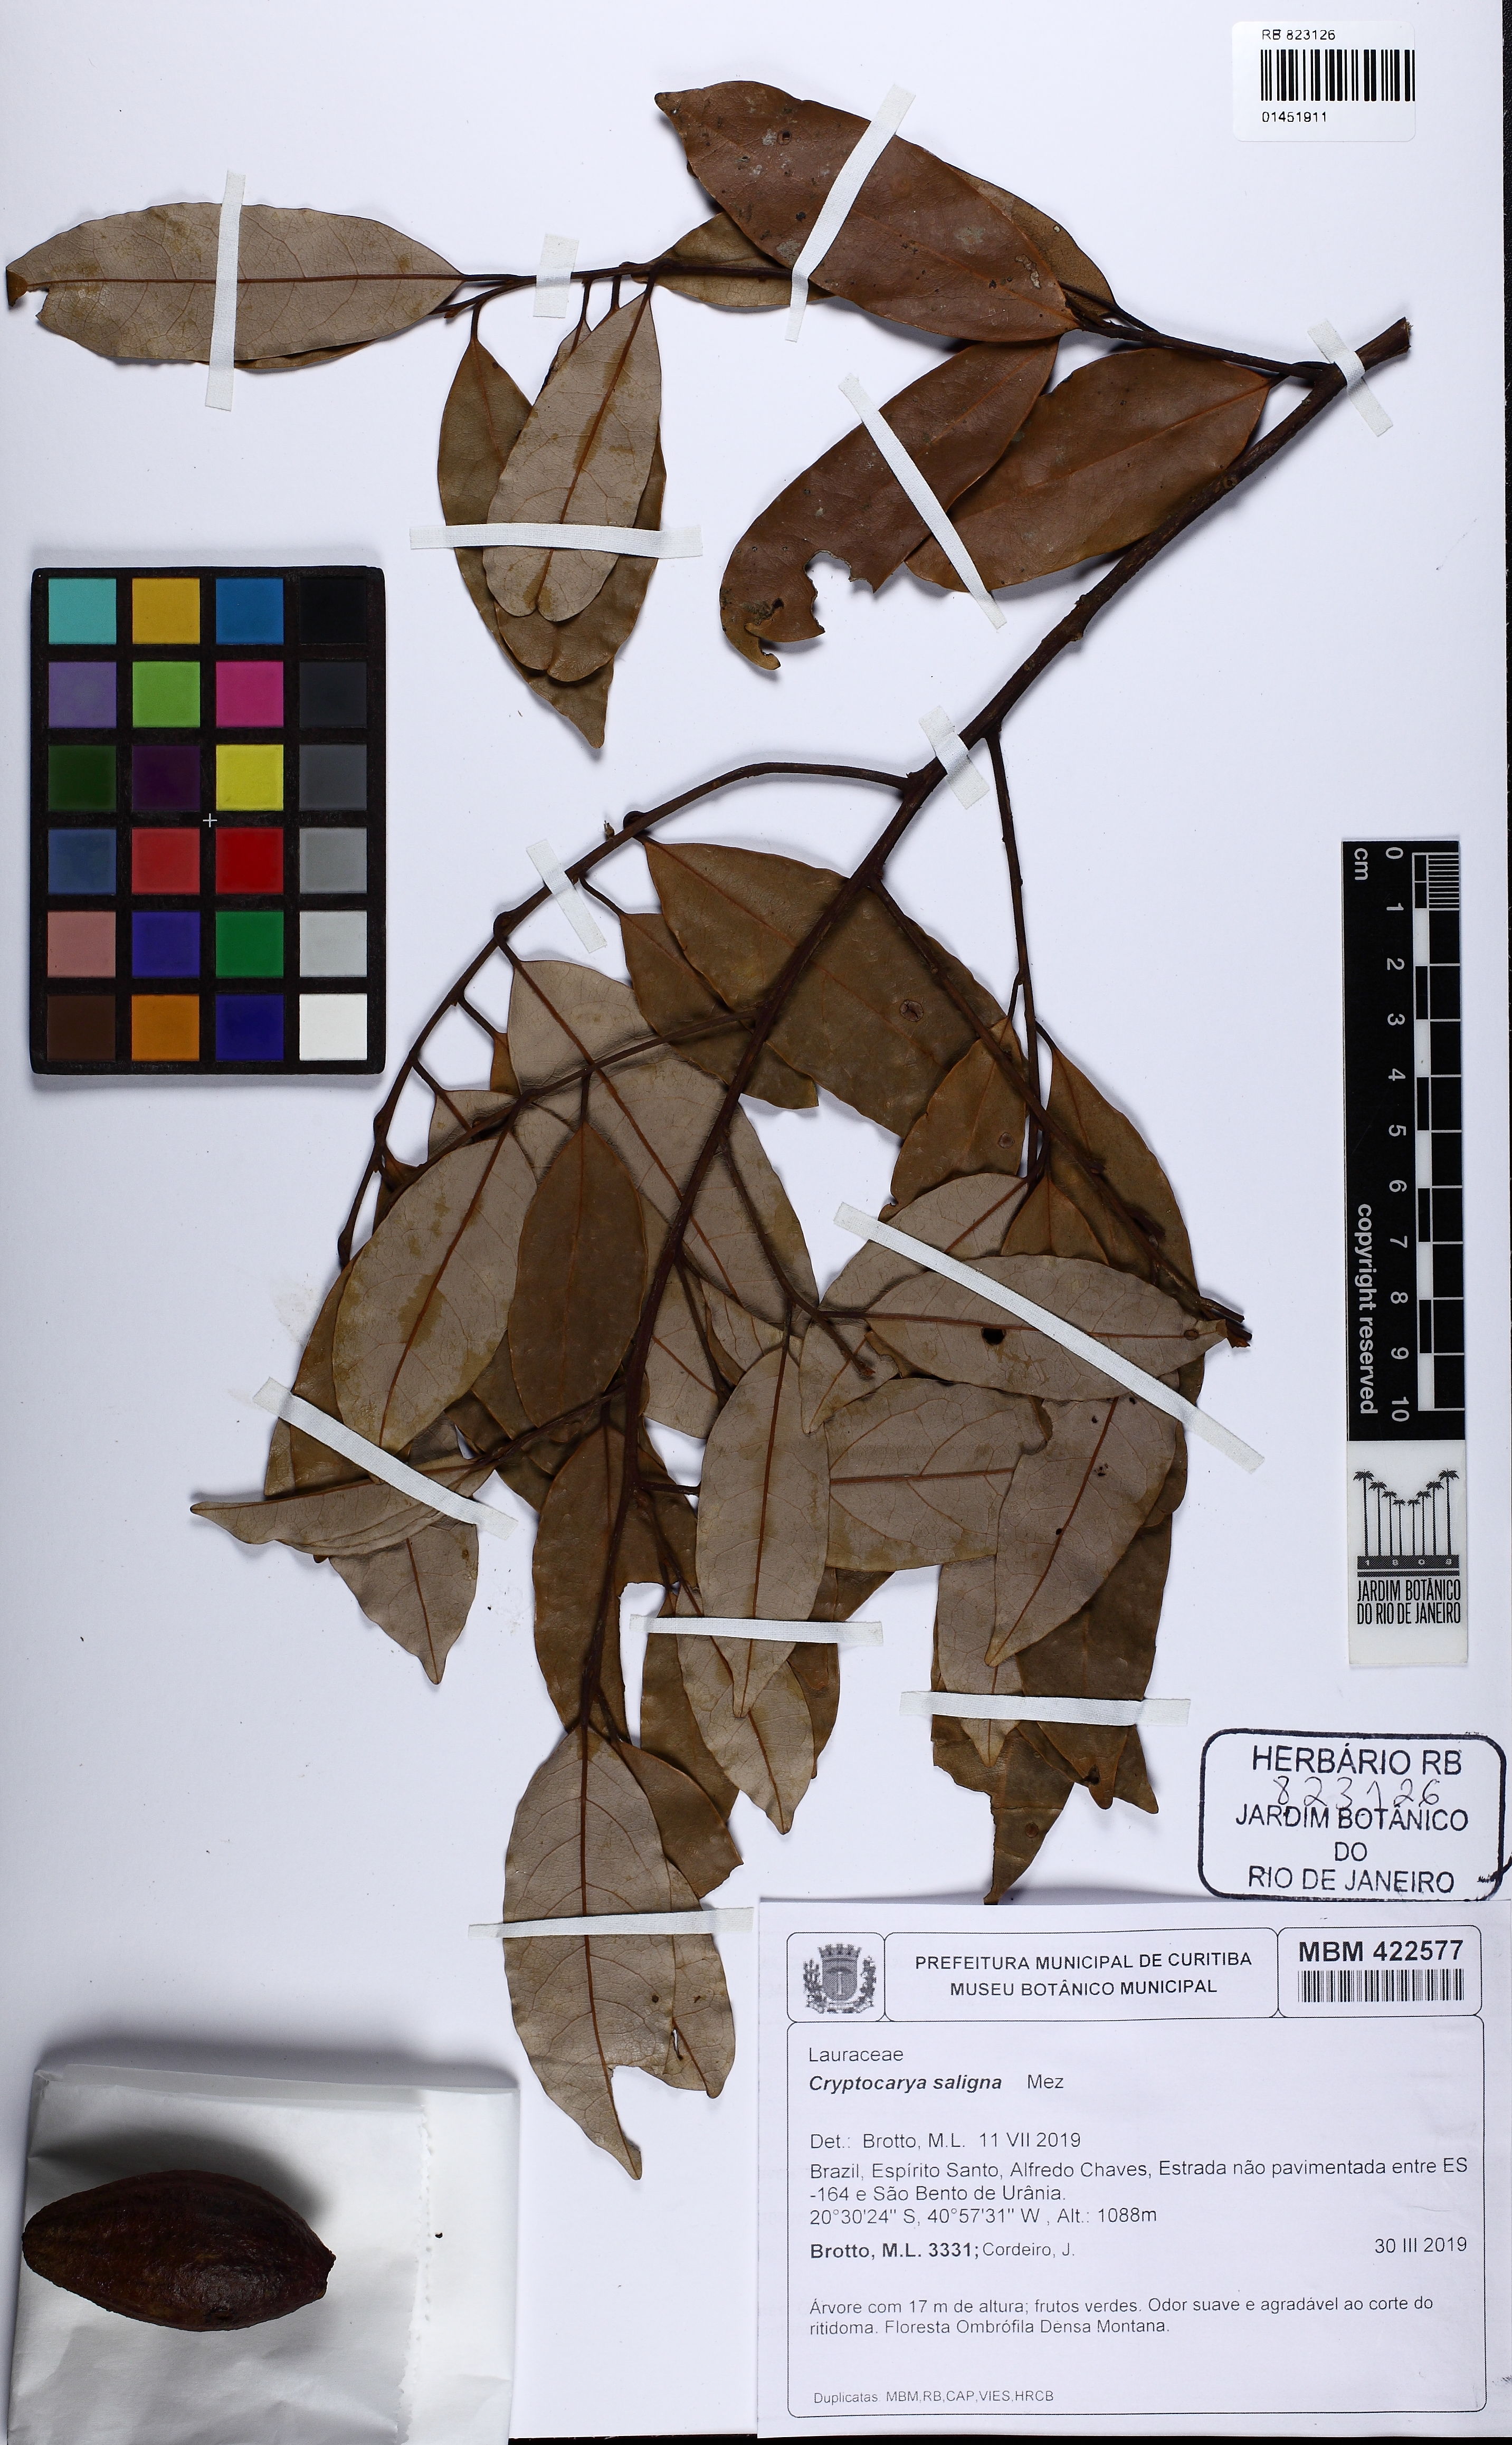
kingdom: Plantae
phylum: Tracheophyta
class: Magnoliopsida
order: Laurales
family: Lauraceae
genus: Cryptocarya
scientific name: Cryptocarya saligna
